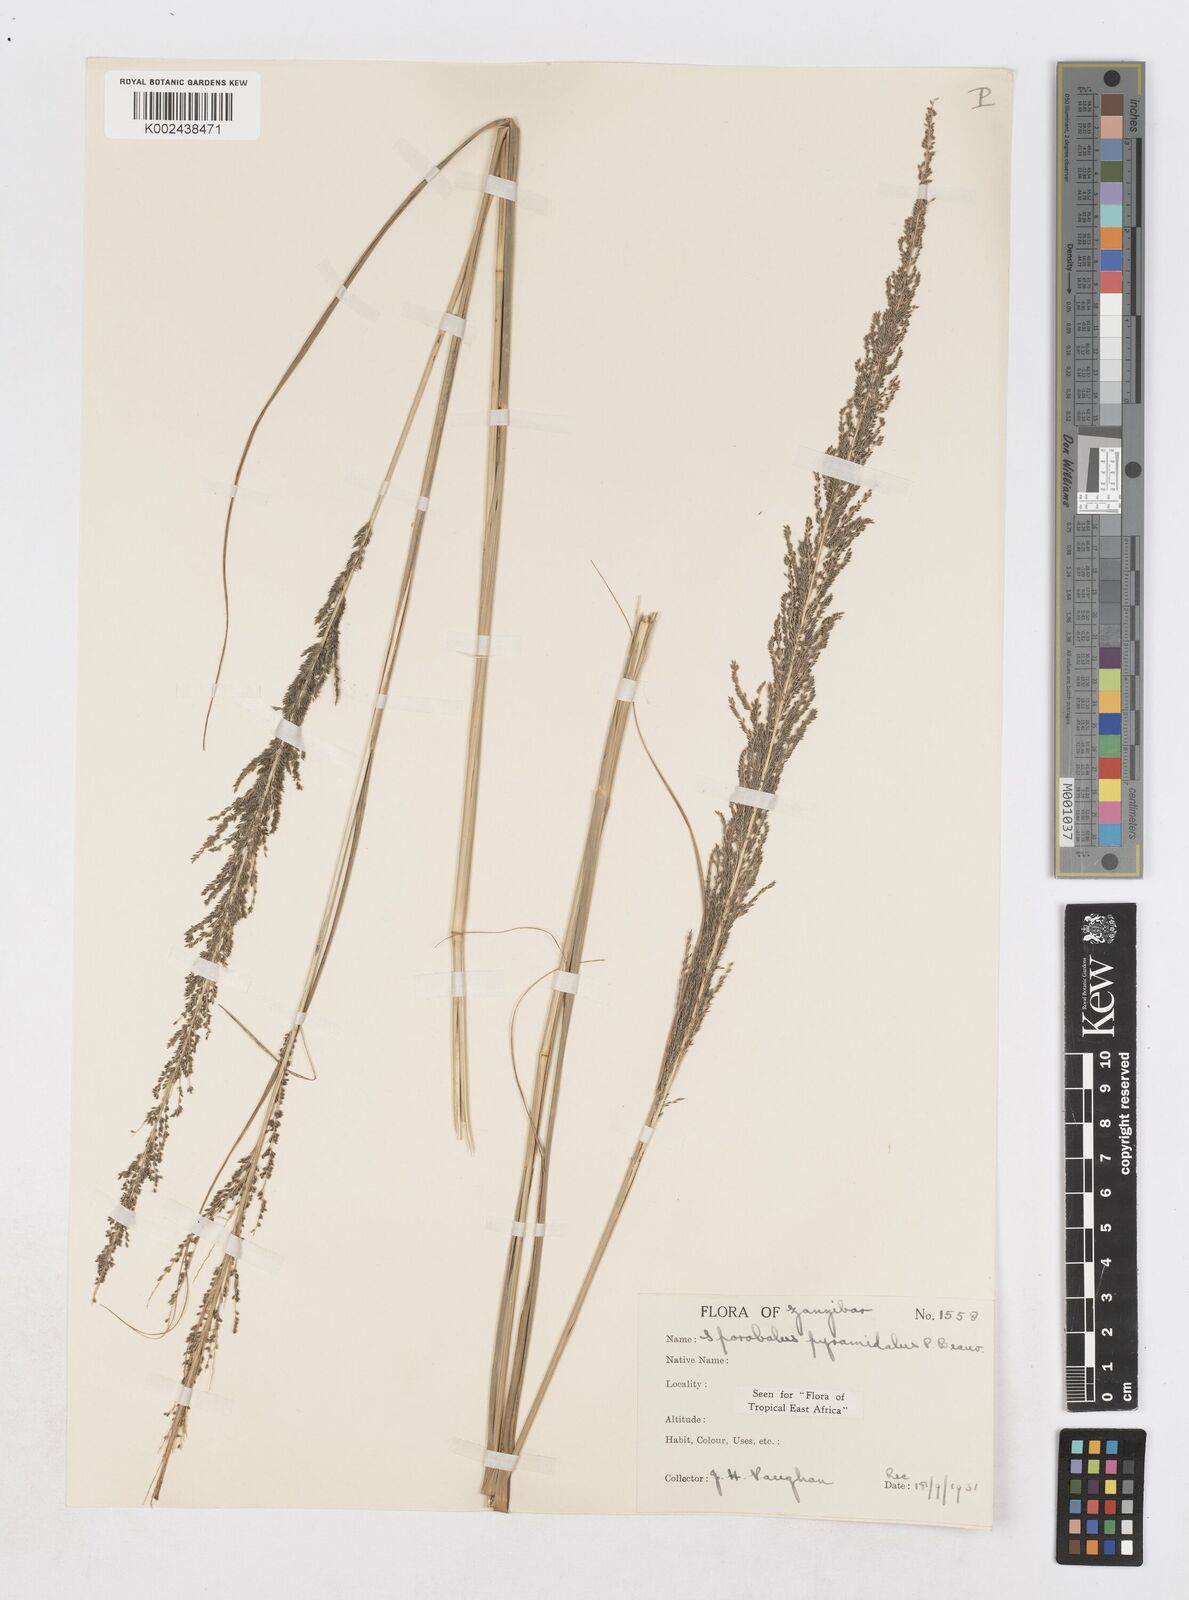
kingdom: Plantae
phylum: Tracheophyta
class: Liliopsida
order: Poales
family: Poaceae
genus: Sporobolus
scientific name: Sporobolus pyramidalis
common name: West indian dropseed
